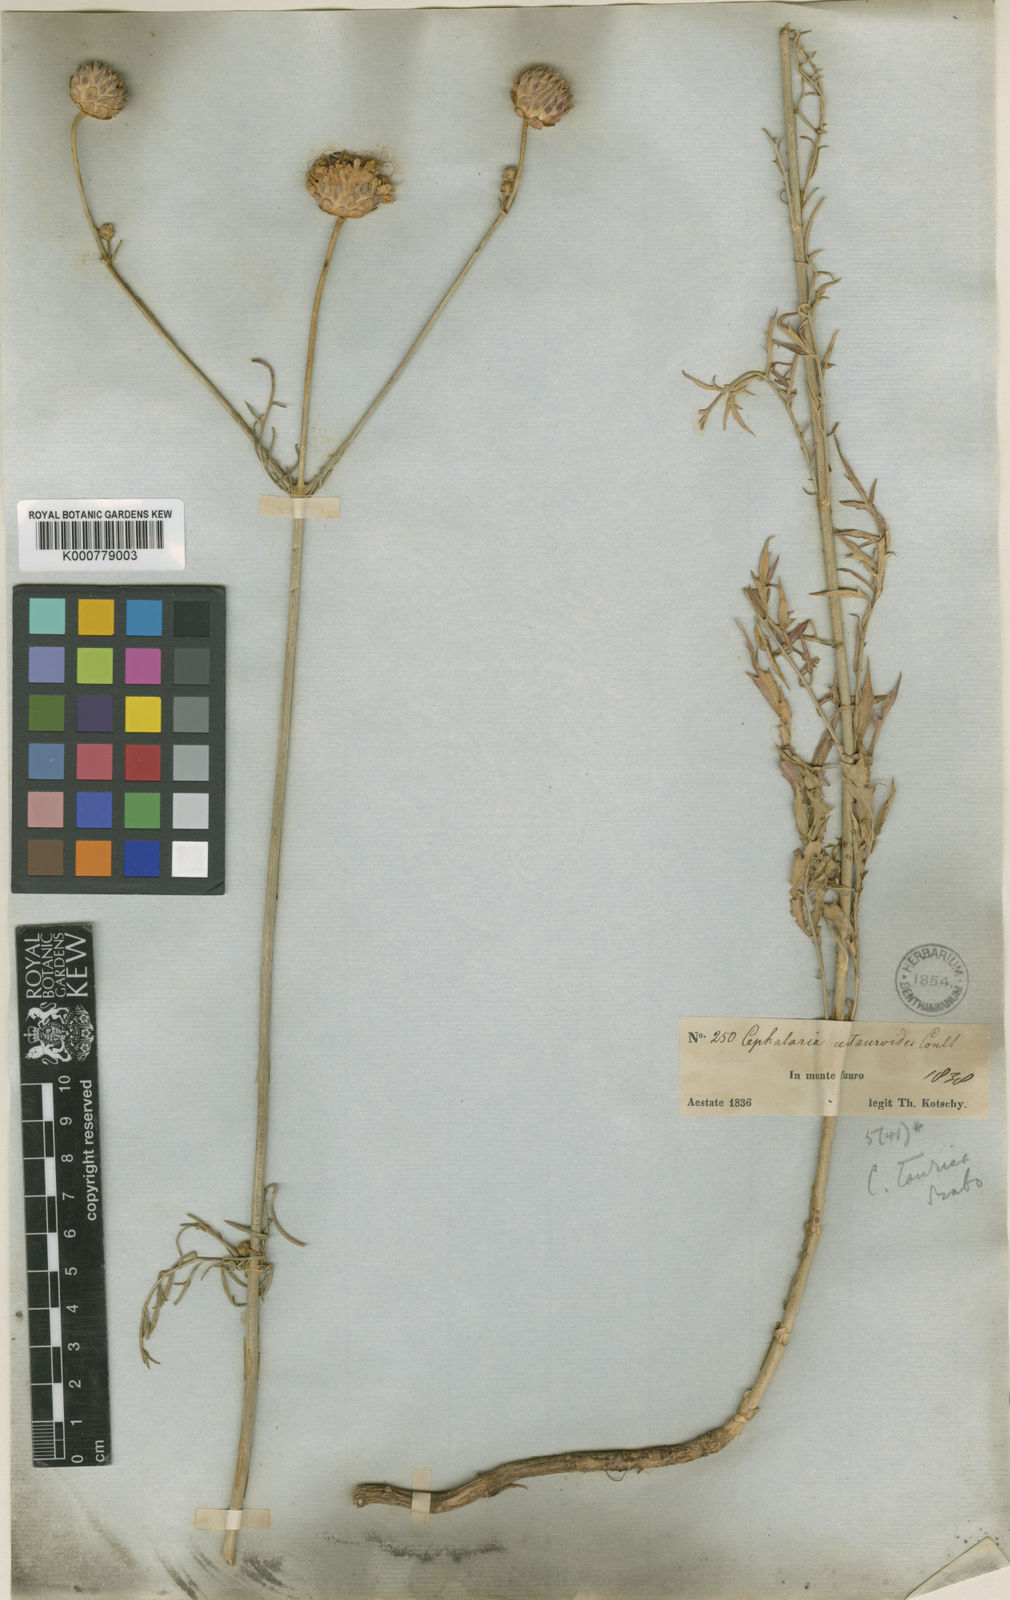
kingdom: Plantae
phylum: Tracheophyta
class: Magnoliopsida
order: Dipsacales
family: Caprifoliaceae
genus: Cephalaria
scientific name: Cephalaria
